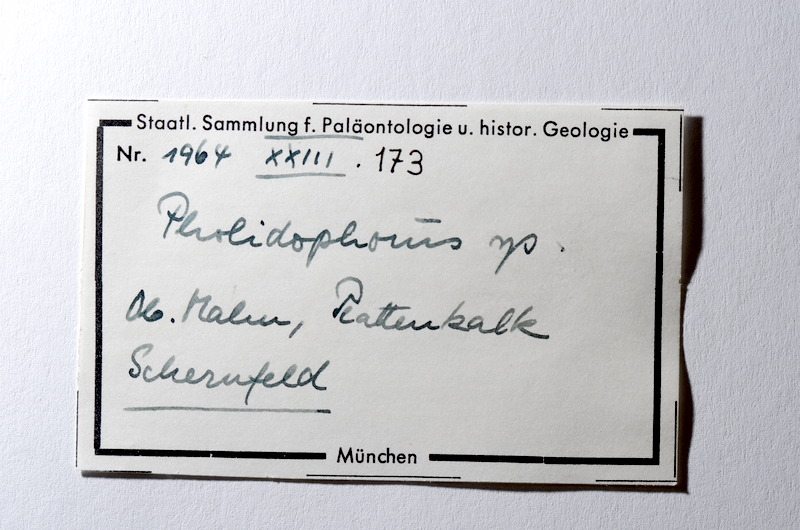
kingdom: Animalia
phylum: Chordata
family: Pholidophoridae
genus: Pholidophorus
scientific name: Pholidophorus
